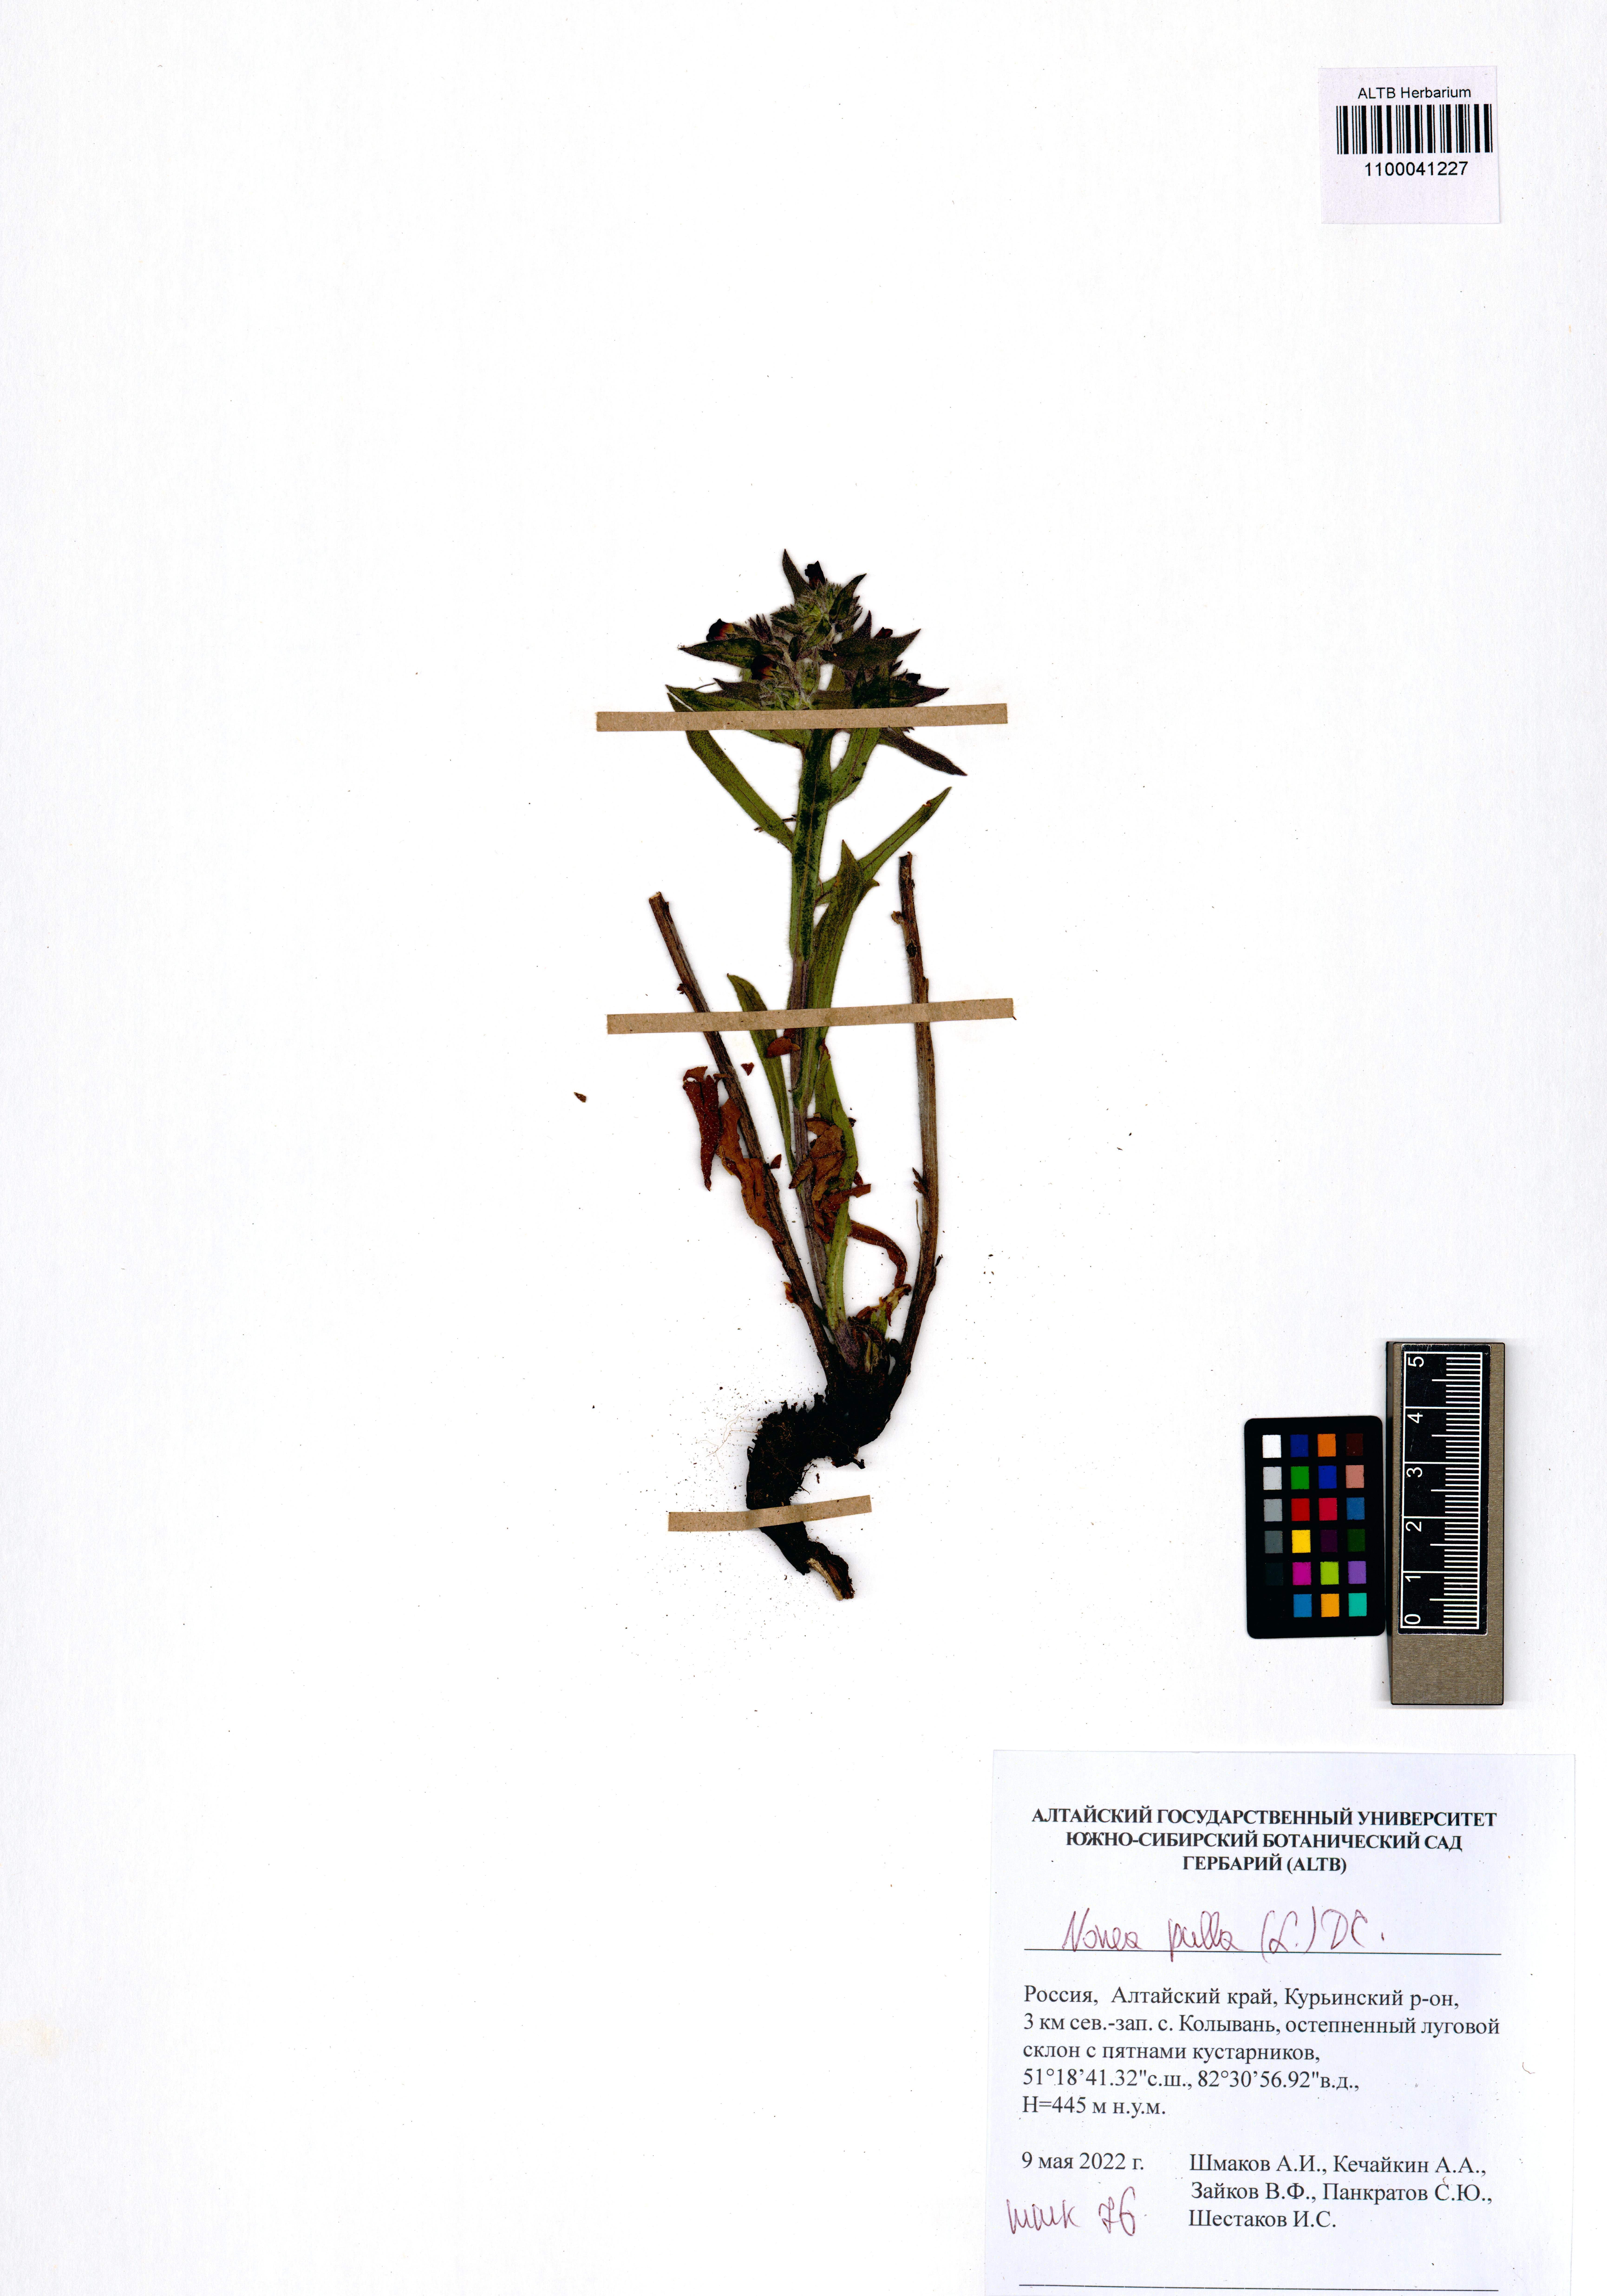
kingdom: Plantae
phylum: Tracheophyta
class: Magnoliopsida
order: Boraginales
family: Boraginaceae
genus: Nonea
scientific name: Nonea pulla
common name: Brown nonea
